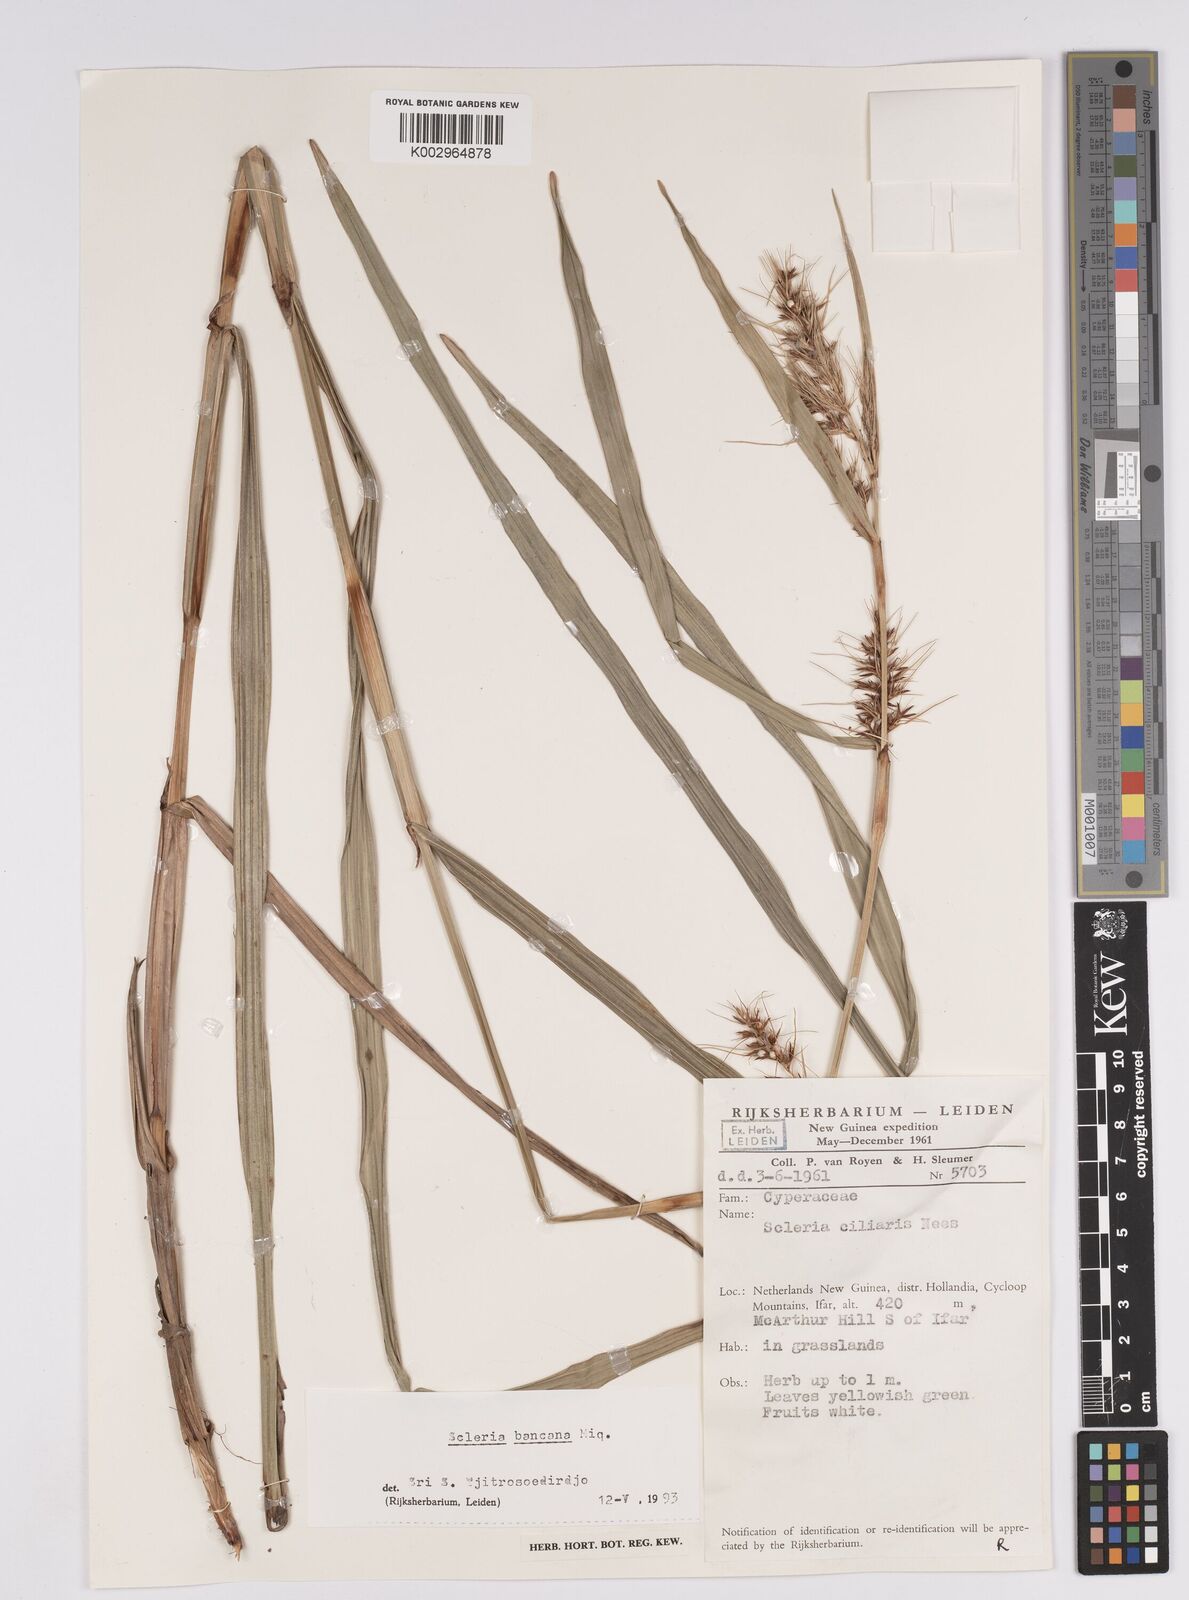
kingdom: Plantae
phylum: Tracheophyta
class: Liliopsida
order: Poales
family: Cyperaceae
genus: Scleria
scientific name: Scleria ciliaris
